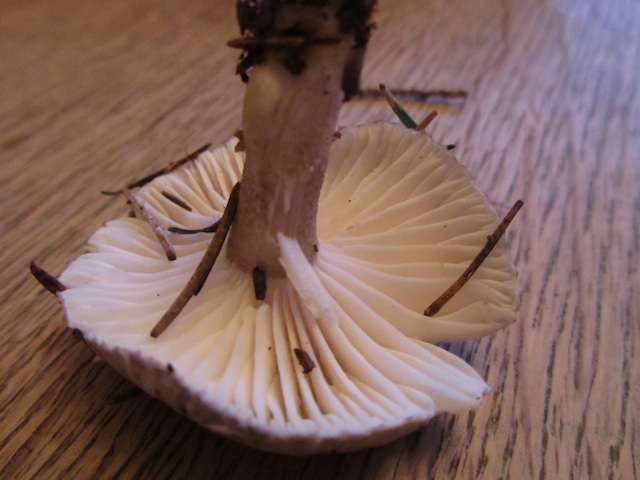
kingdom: Fungi
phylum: Basidiomycota
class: Agaricomycetes
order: Agaricales
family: Hygrophoraceae
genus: Hygrophorus
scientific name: Hygrophorus pustulatus
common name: mørkprikket sneglehat
